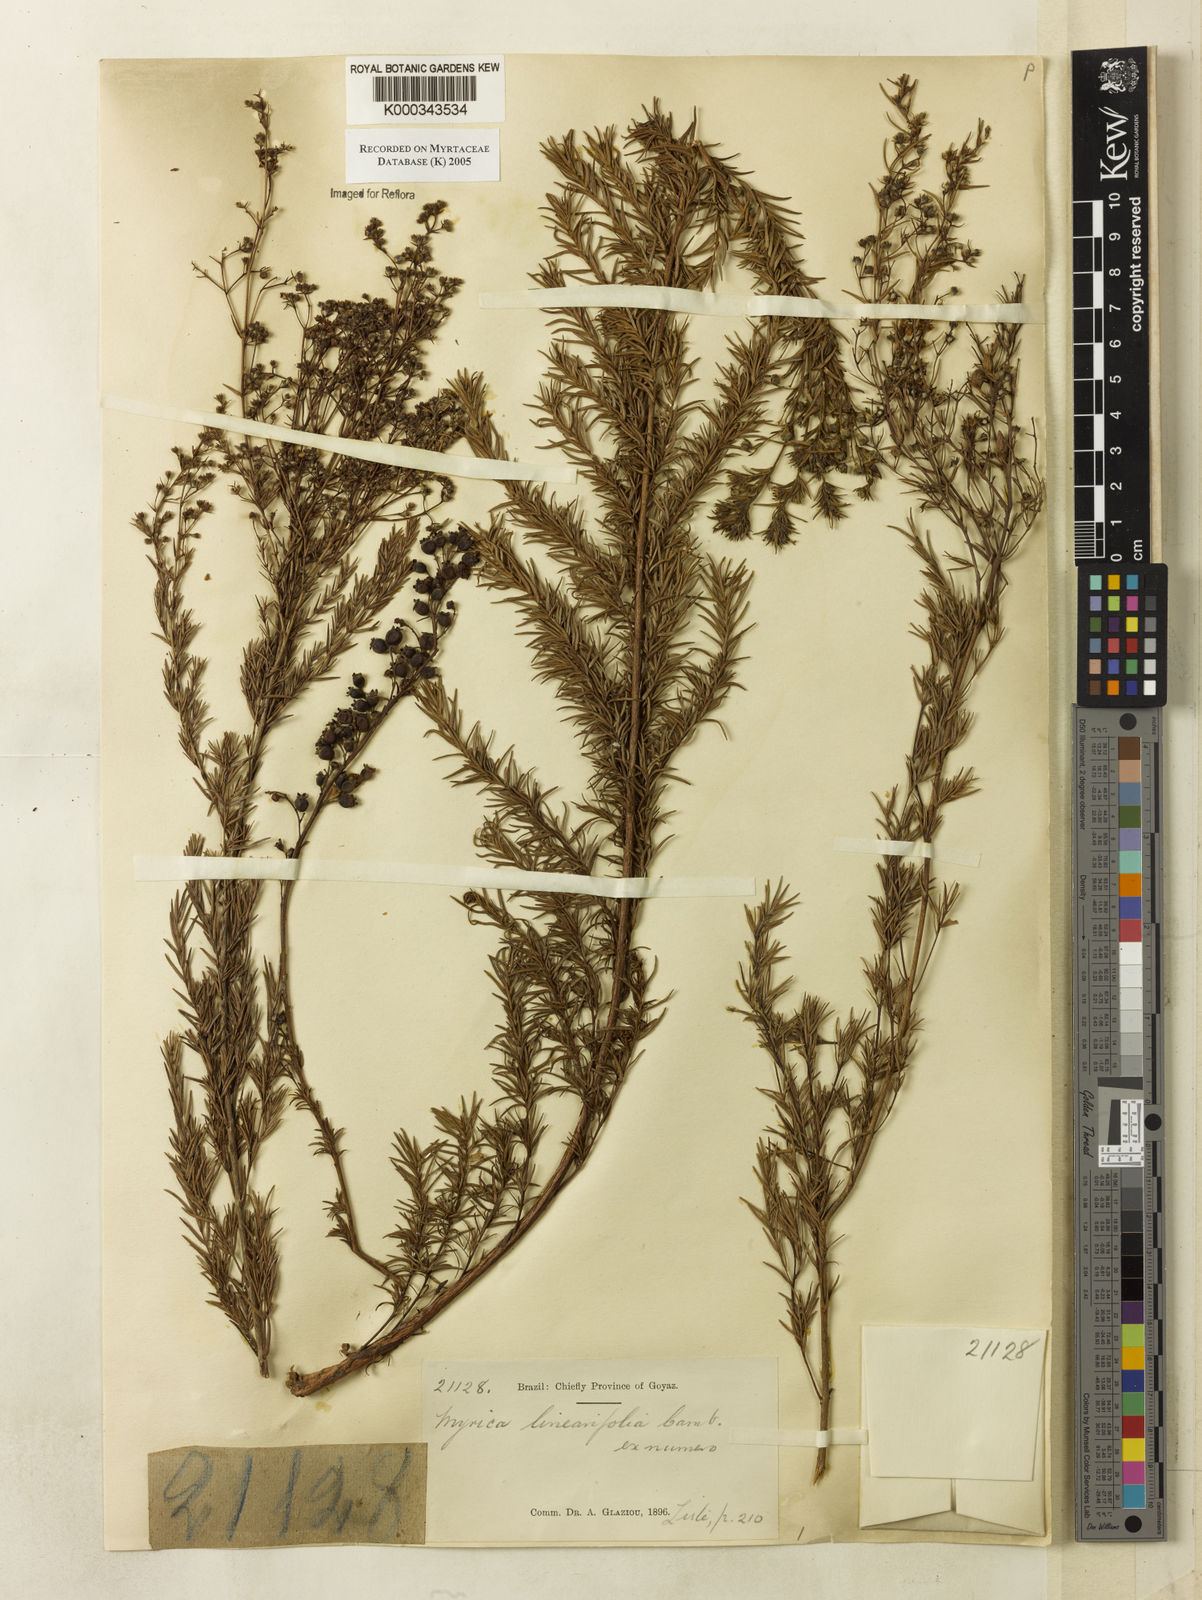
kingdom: Plantae
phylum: Tracheophyta
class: Magnoliopsida
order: Myrtales
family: Myrtaceae
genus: Myrcia
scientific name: Myrcia linearifolia
